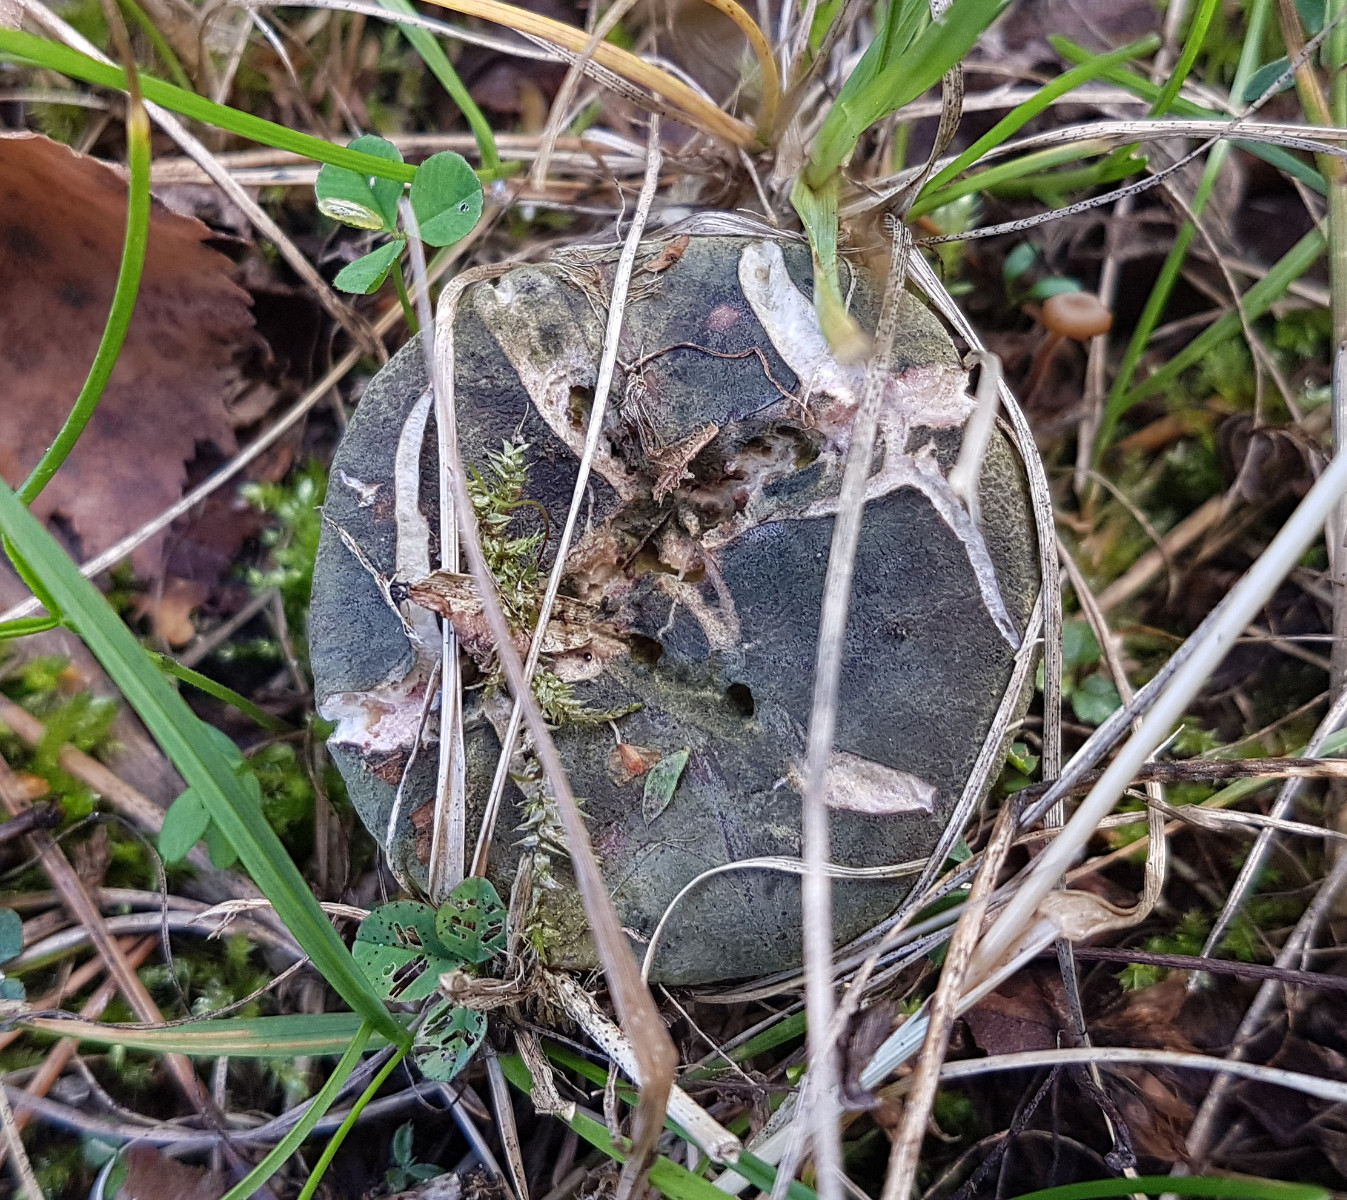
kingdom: Fungi
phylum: Ascomycota
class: Sordariomycetes
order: Hypocreales
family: Hypocreaceae
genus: Hypomyces
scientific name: Hypomyces luteovirens
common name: gulgrøn snylteskorpe
